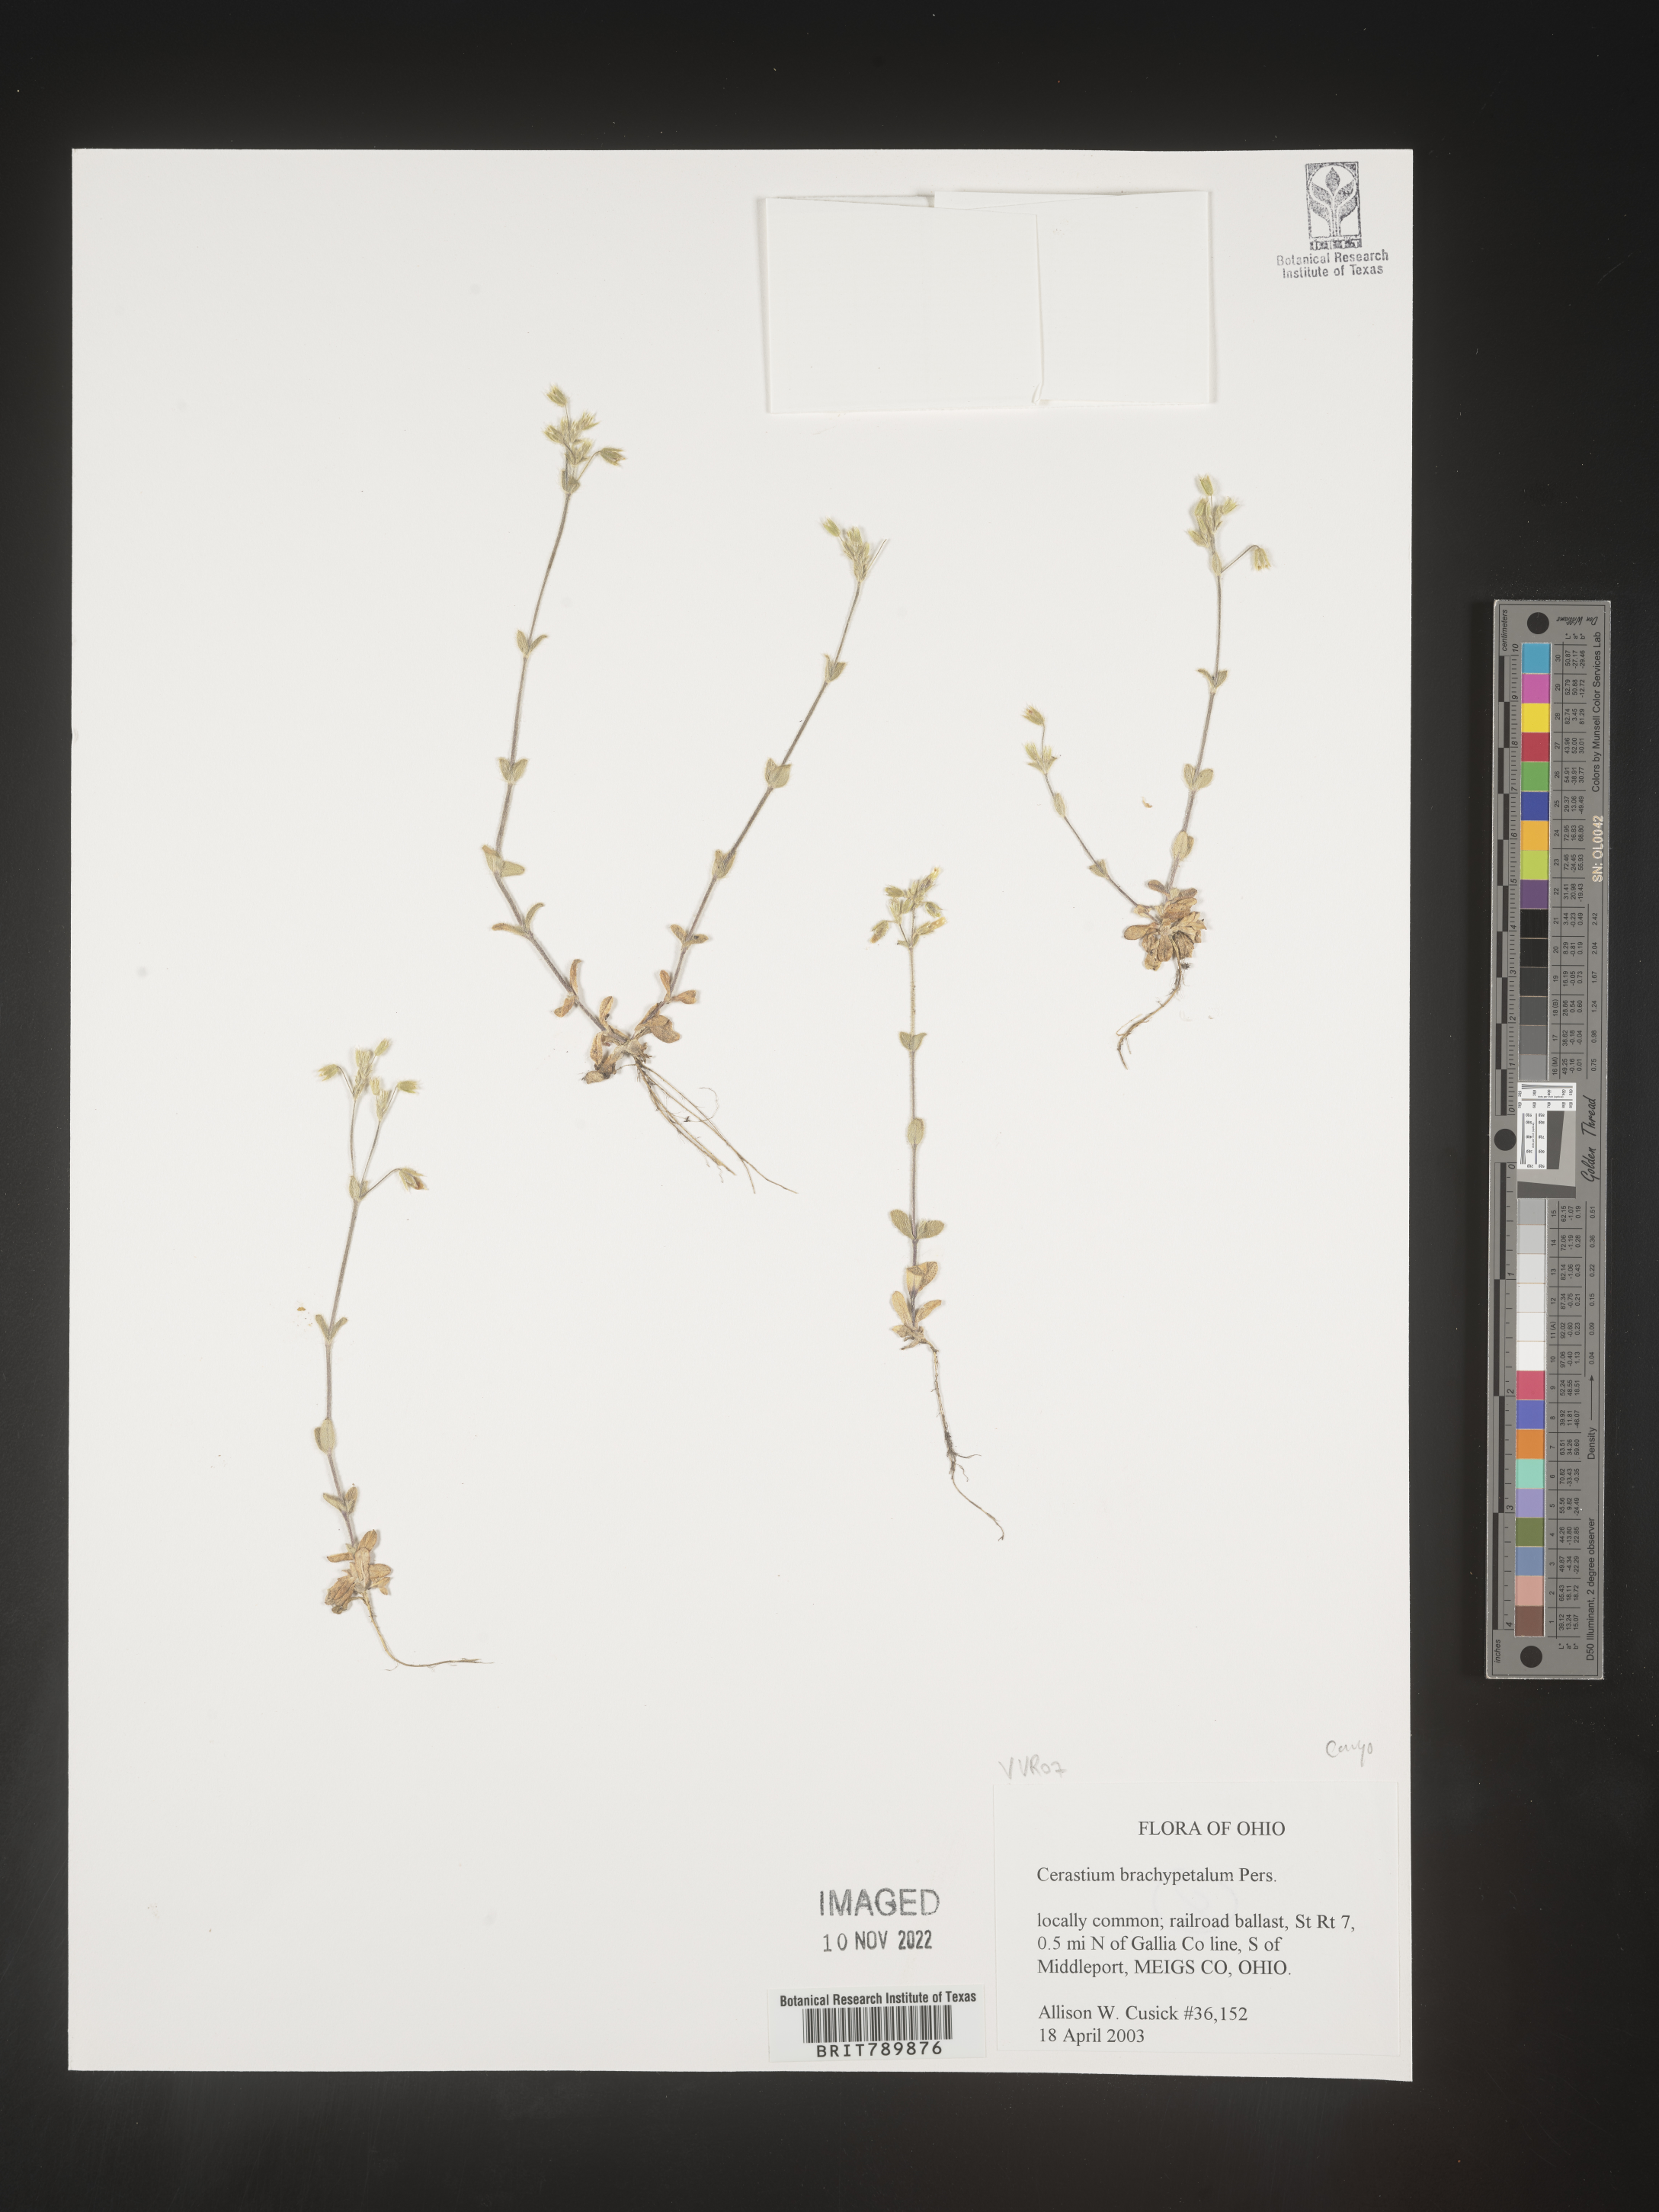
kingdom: Plantae
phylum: Tracheophyta
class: Magnoliopsida
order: Caryophyllales
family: Caryophyllaceae
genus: Cerastium
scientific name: Cerastium brachypetalum
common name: Grey mouse-ear
